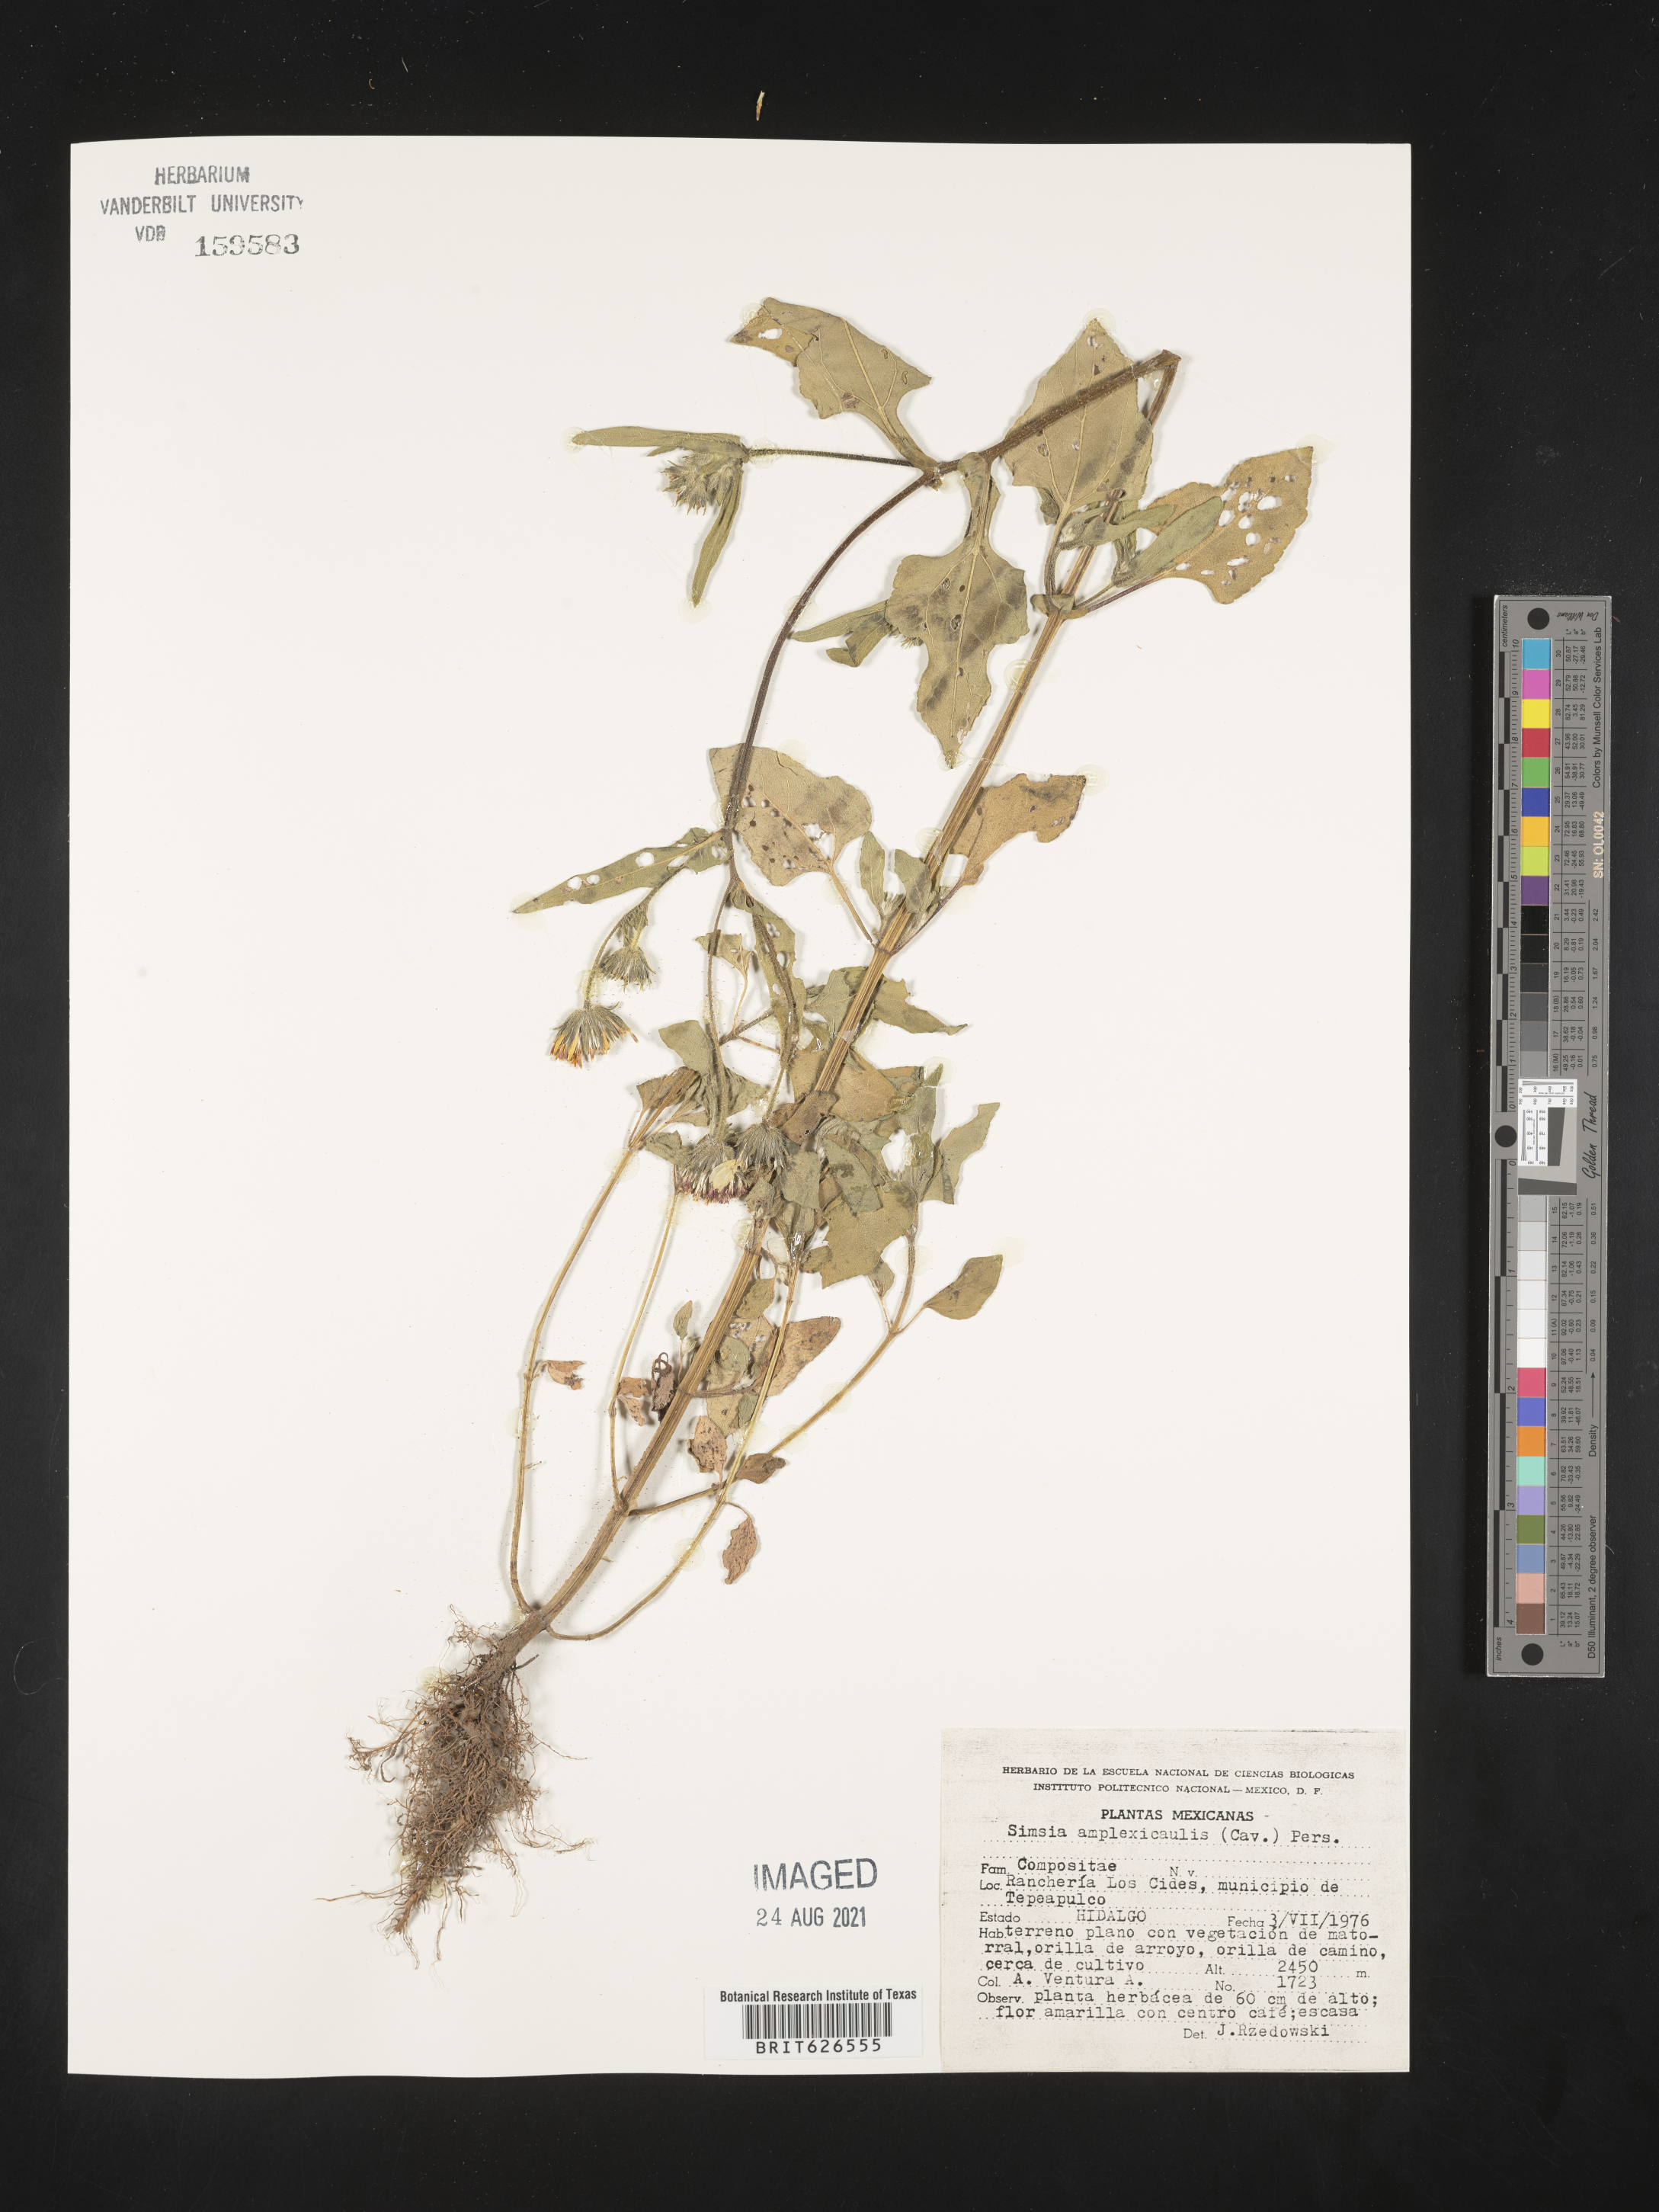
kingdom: Plantae
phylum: Tracheophyta
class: Magnoliopsida
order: Asterales
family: Asteraceae
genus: Simsia
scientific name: Simsia
